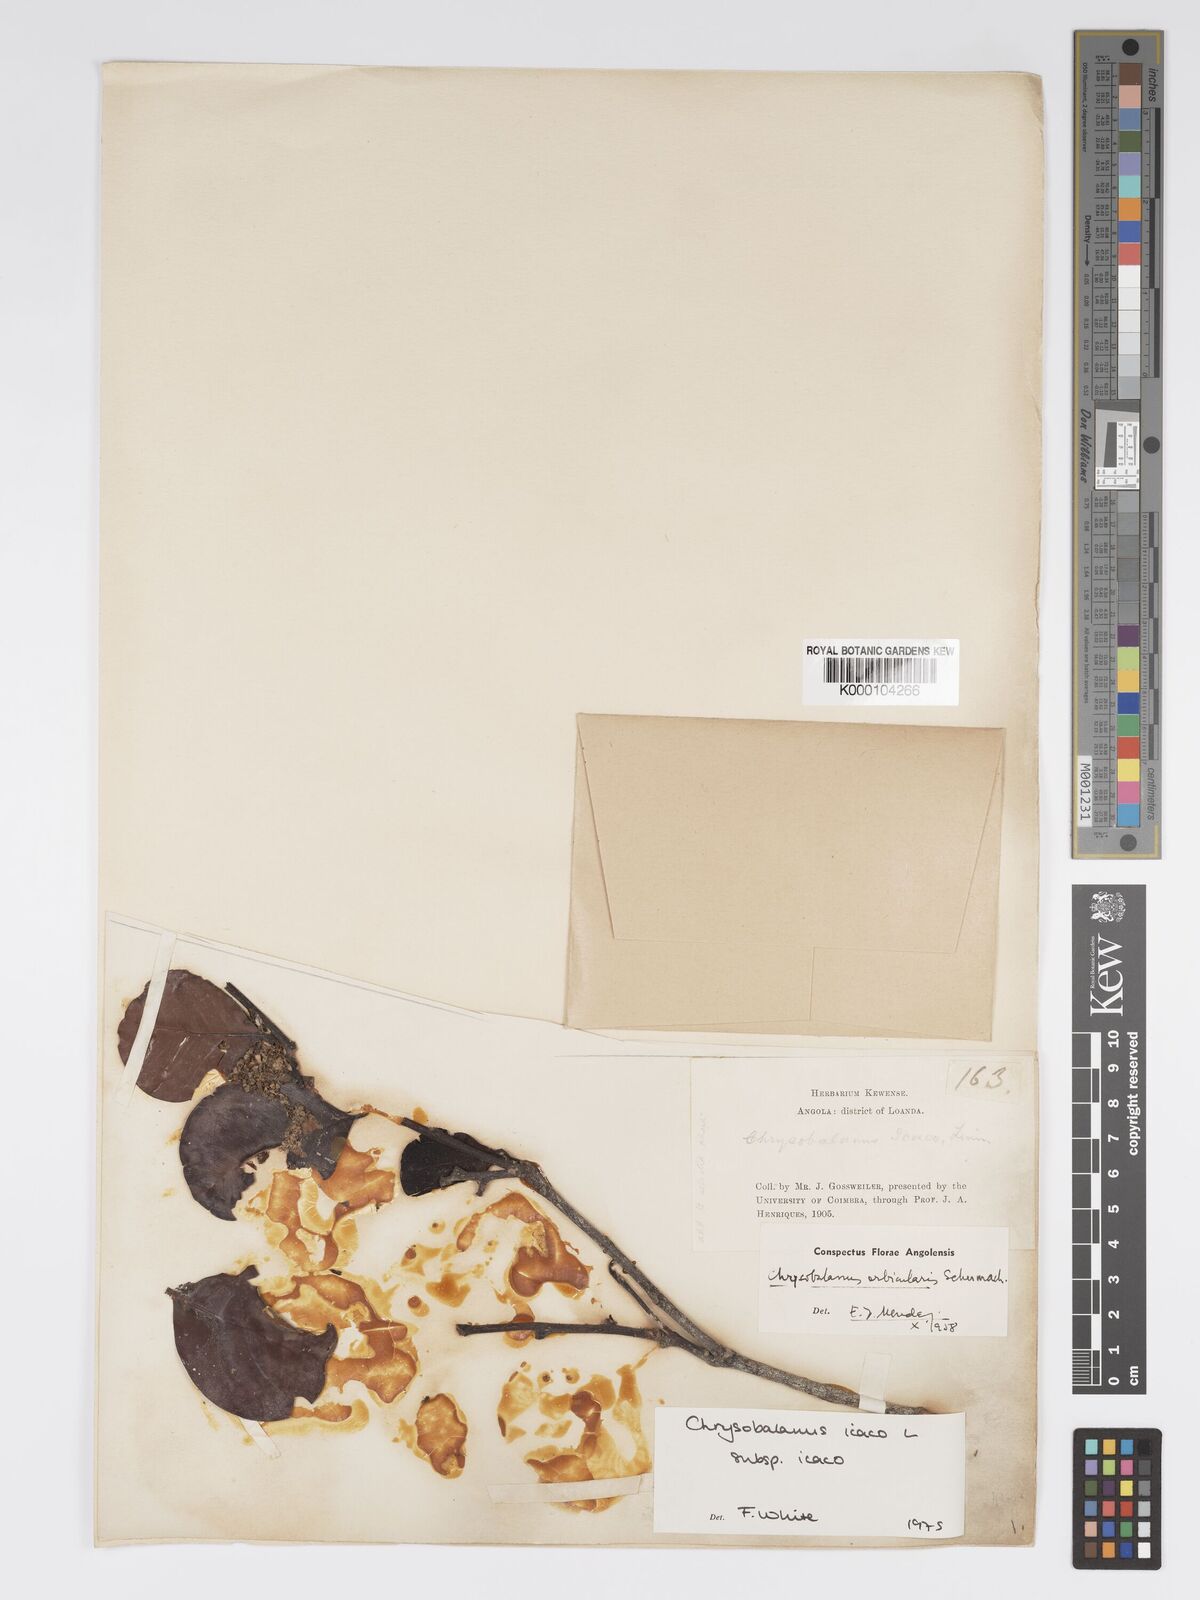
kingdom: Plantae
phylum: Tracheophyta
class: Magnoliopsida
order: Malpighiales
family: Chrysobalanaceae
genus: Chrysobalanus
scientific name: Chrysobalanus icaco
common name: Coco plum
